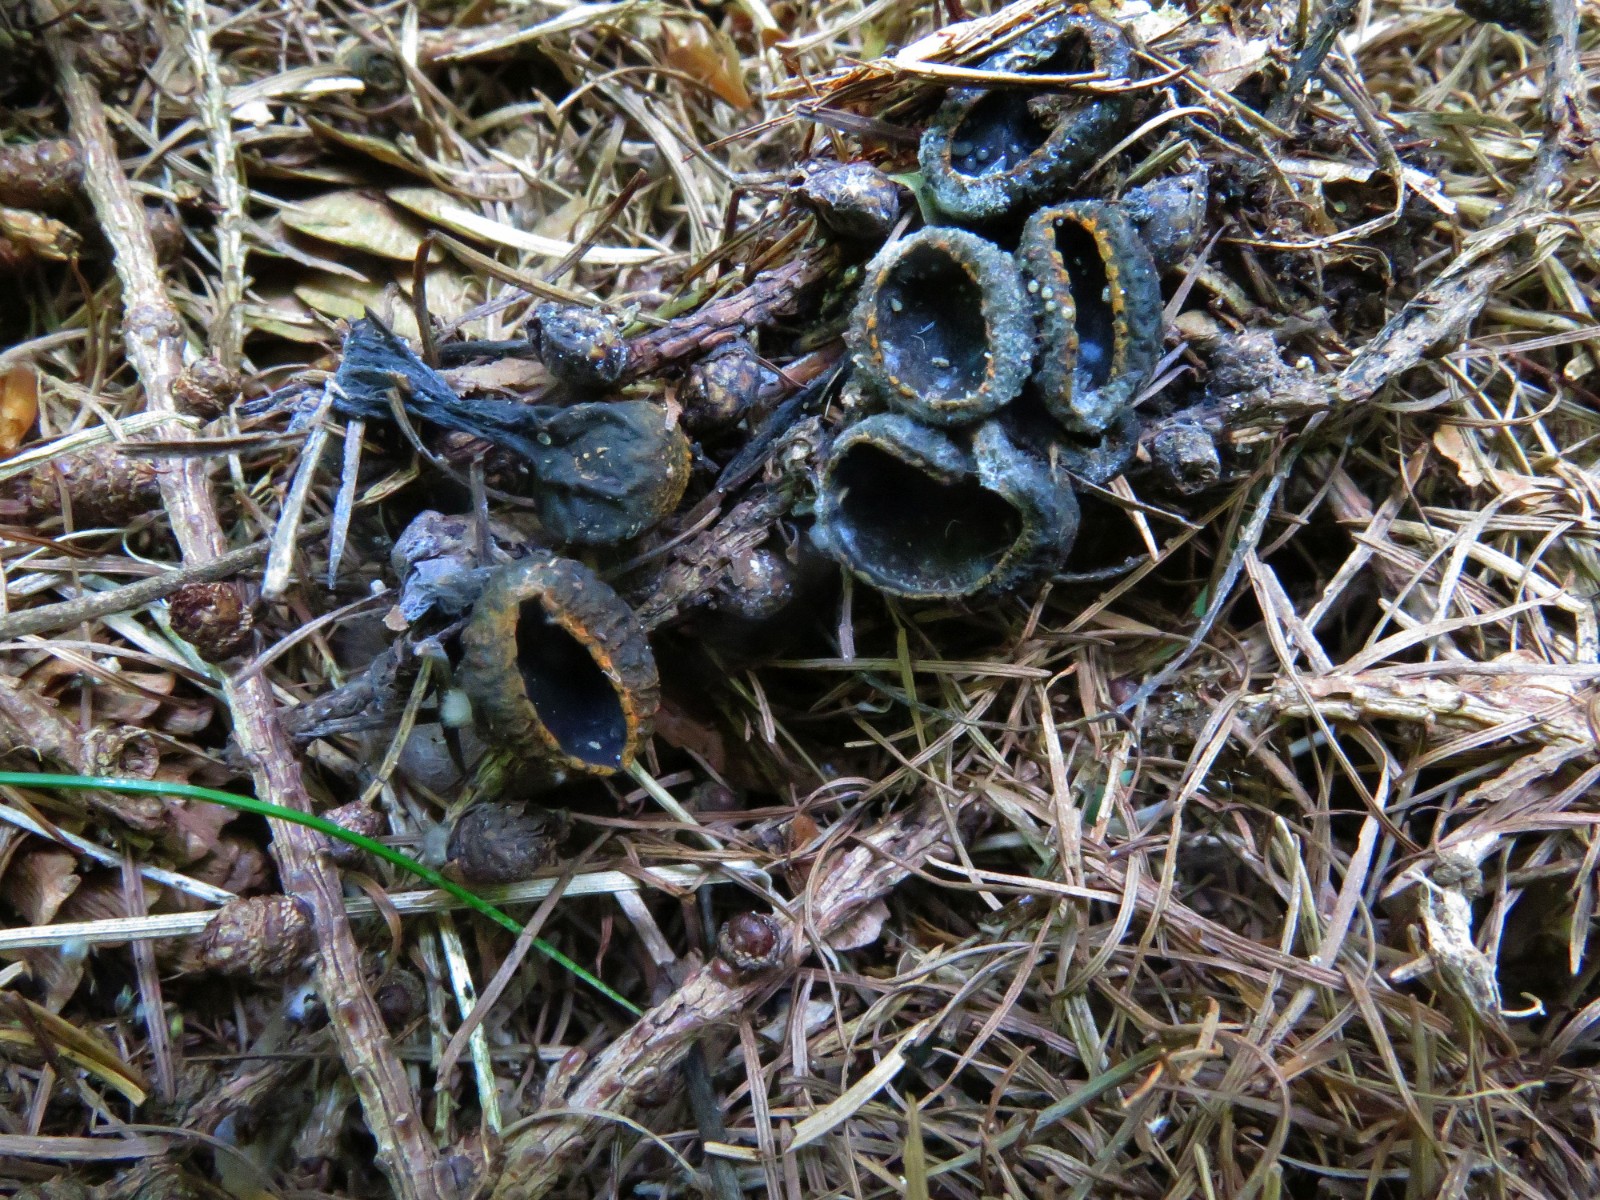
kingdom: Fungi
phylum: Ascomycota
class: Pezizomycetes
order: Pezizales
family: Sarcosomataceae
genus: Plectania
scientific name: Plectania melastoma
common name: rustbæger
